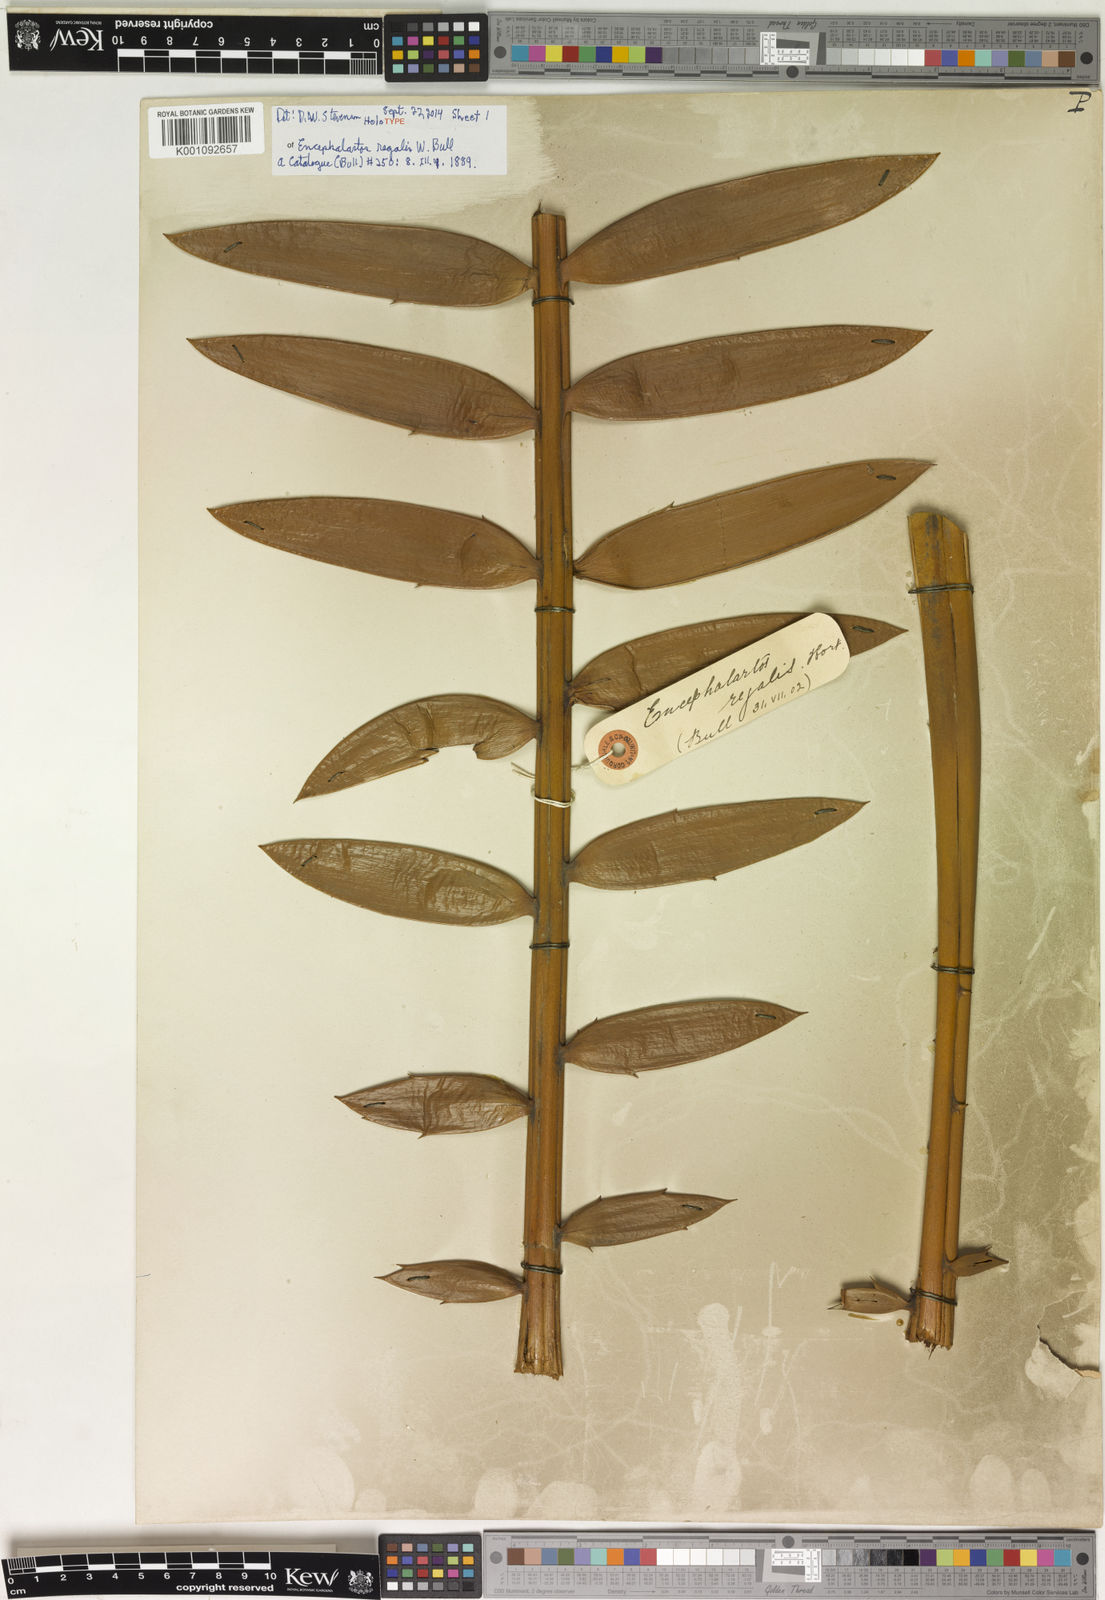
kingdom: Plantae
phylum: Tracheophyta
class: Cycadopsida
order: Cycadales
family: Zamiaceae
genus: Encephalartos
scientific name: Encephalartos altensteinii
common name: Eastern cape cycad
